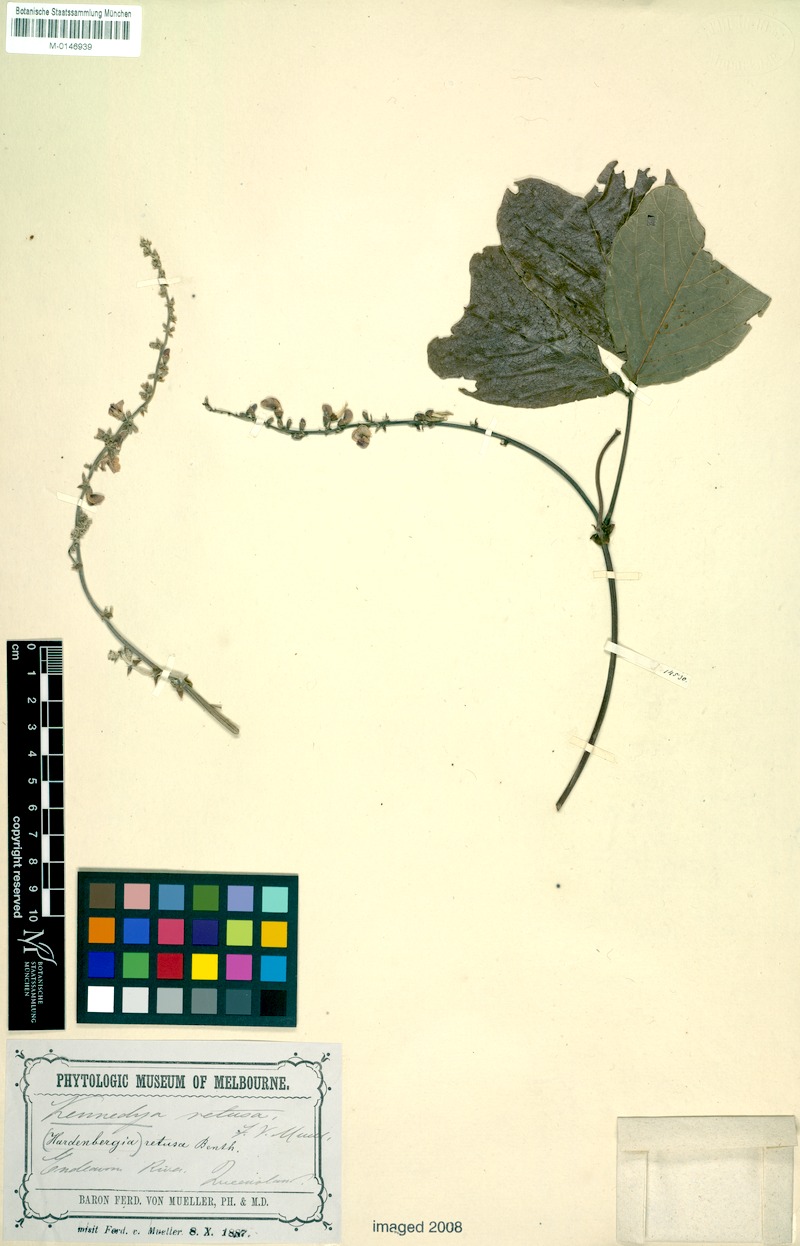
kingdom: Plantae
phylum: Tracheophyta
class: Magnoliopsida
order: Fabales
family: Fabaceae
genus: Kennedia
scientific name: Kennedia prostrata
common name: Running-postman
